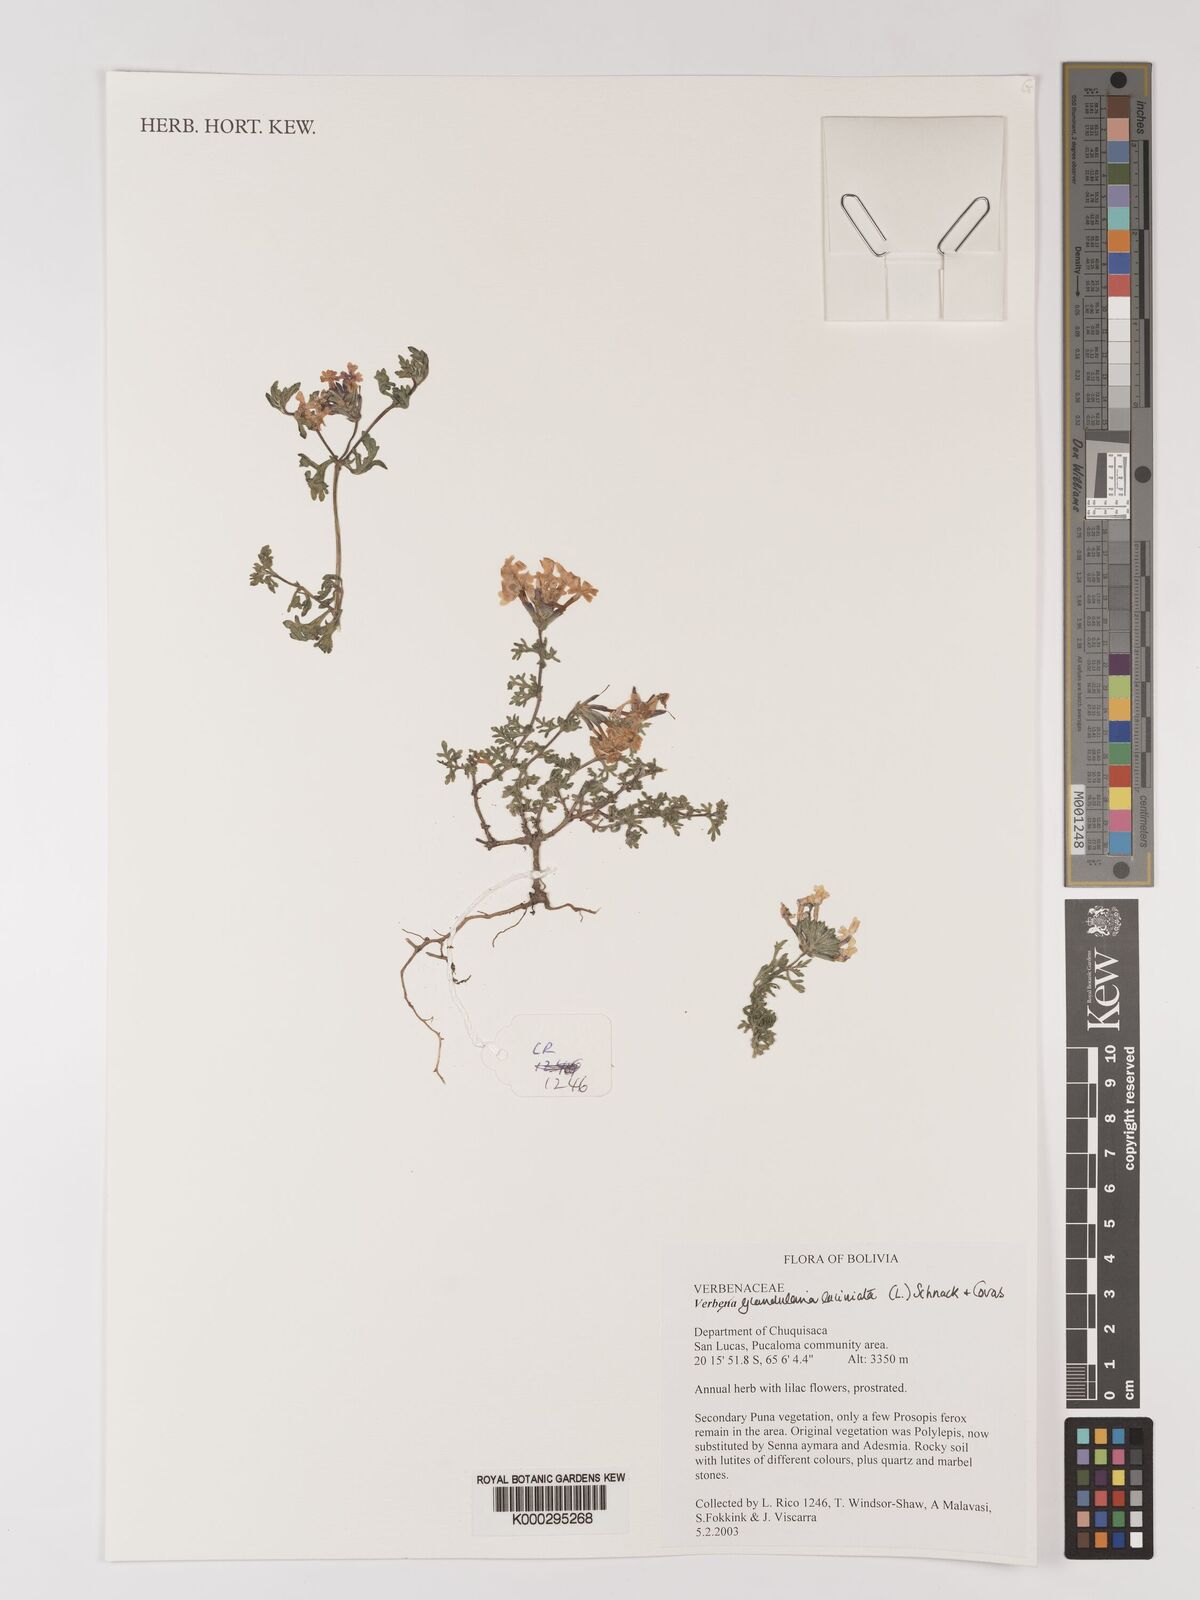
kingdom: Plantae
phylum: Tracheophyta
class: Magnoliopsida
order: Lamiales
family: Verbenaceae
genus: Verbena
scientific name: Verbena
